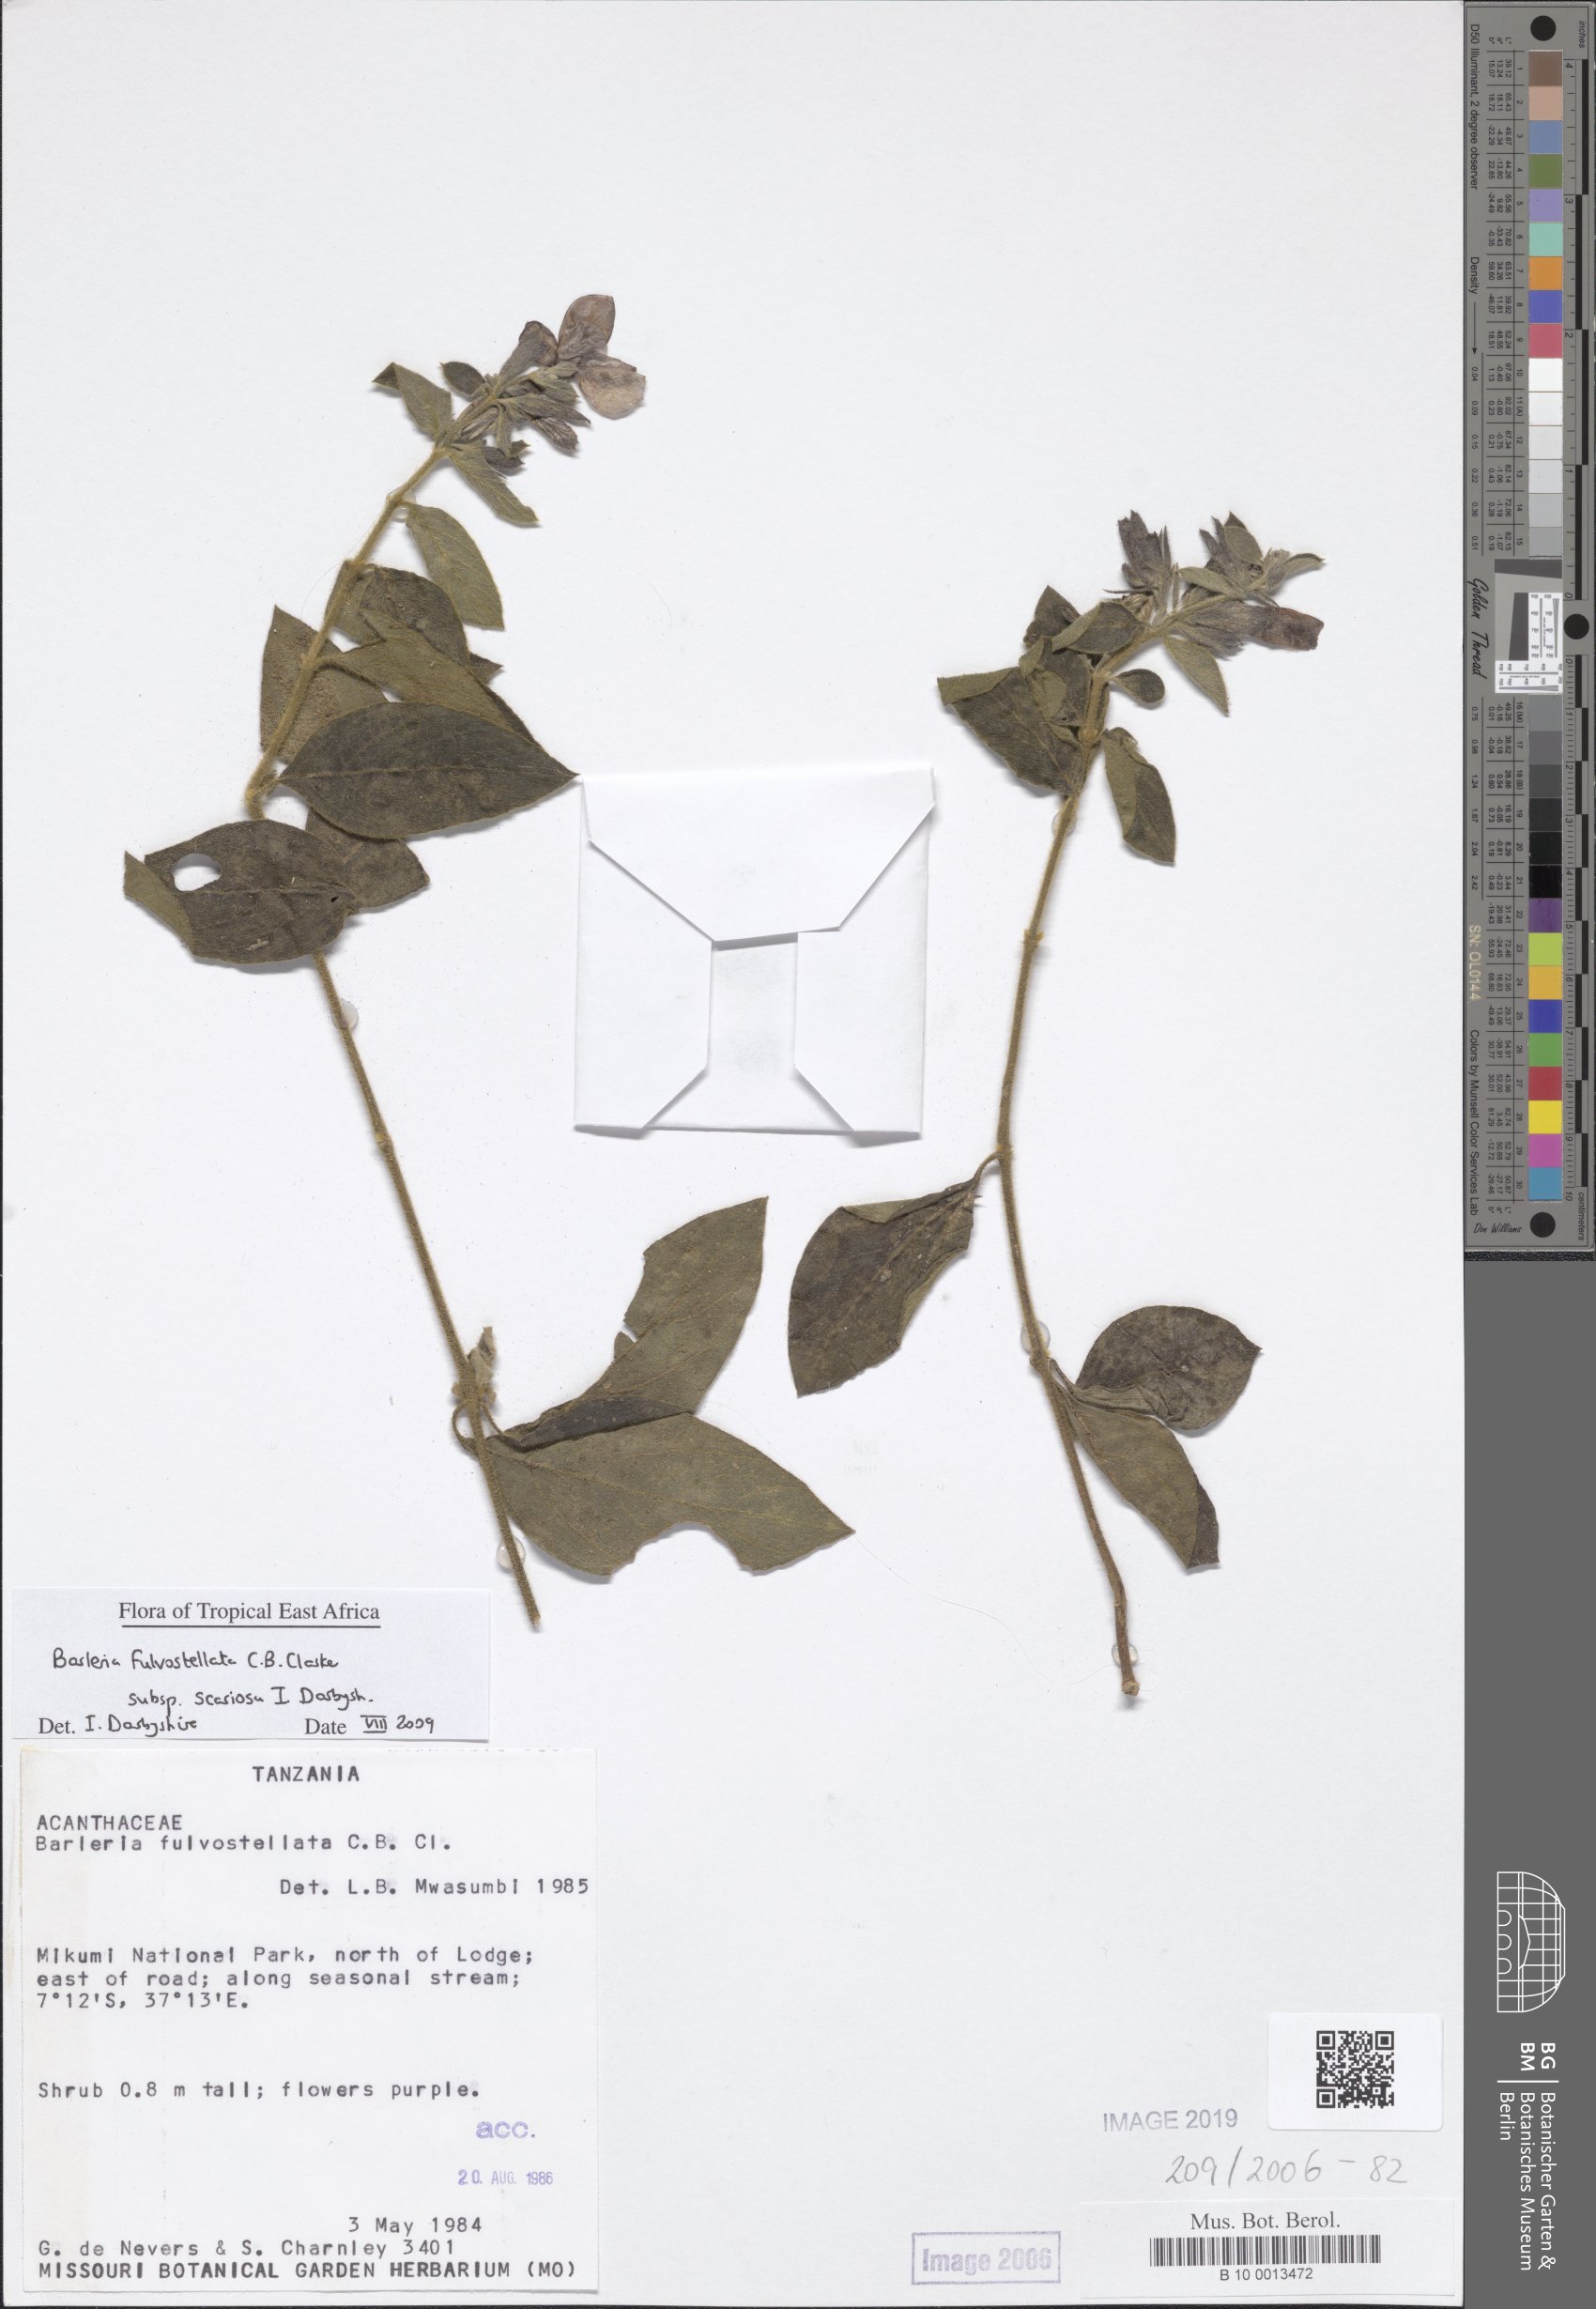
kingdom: Plantae
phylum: Tracheophyta
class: Magnoliopsida
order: Lamiales
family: Acanthaceae
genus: Barleria
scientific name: Barleria mutabilis
